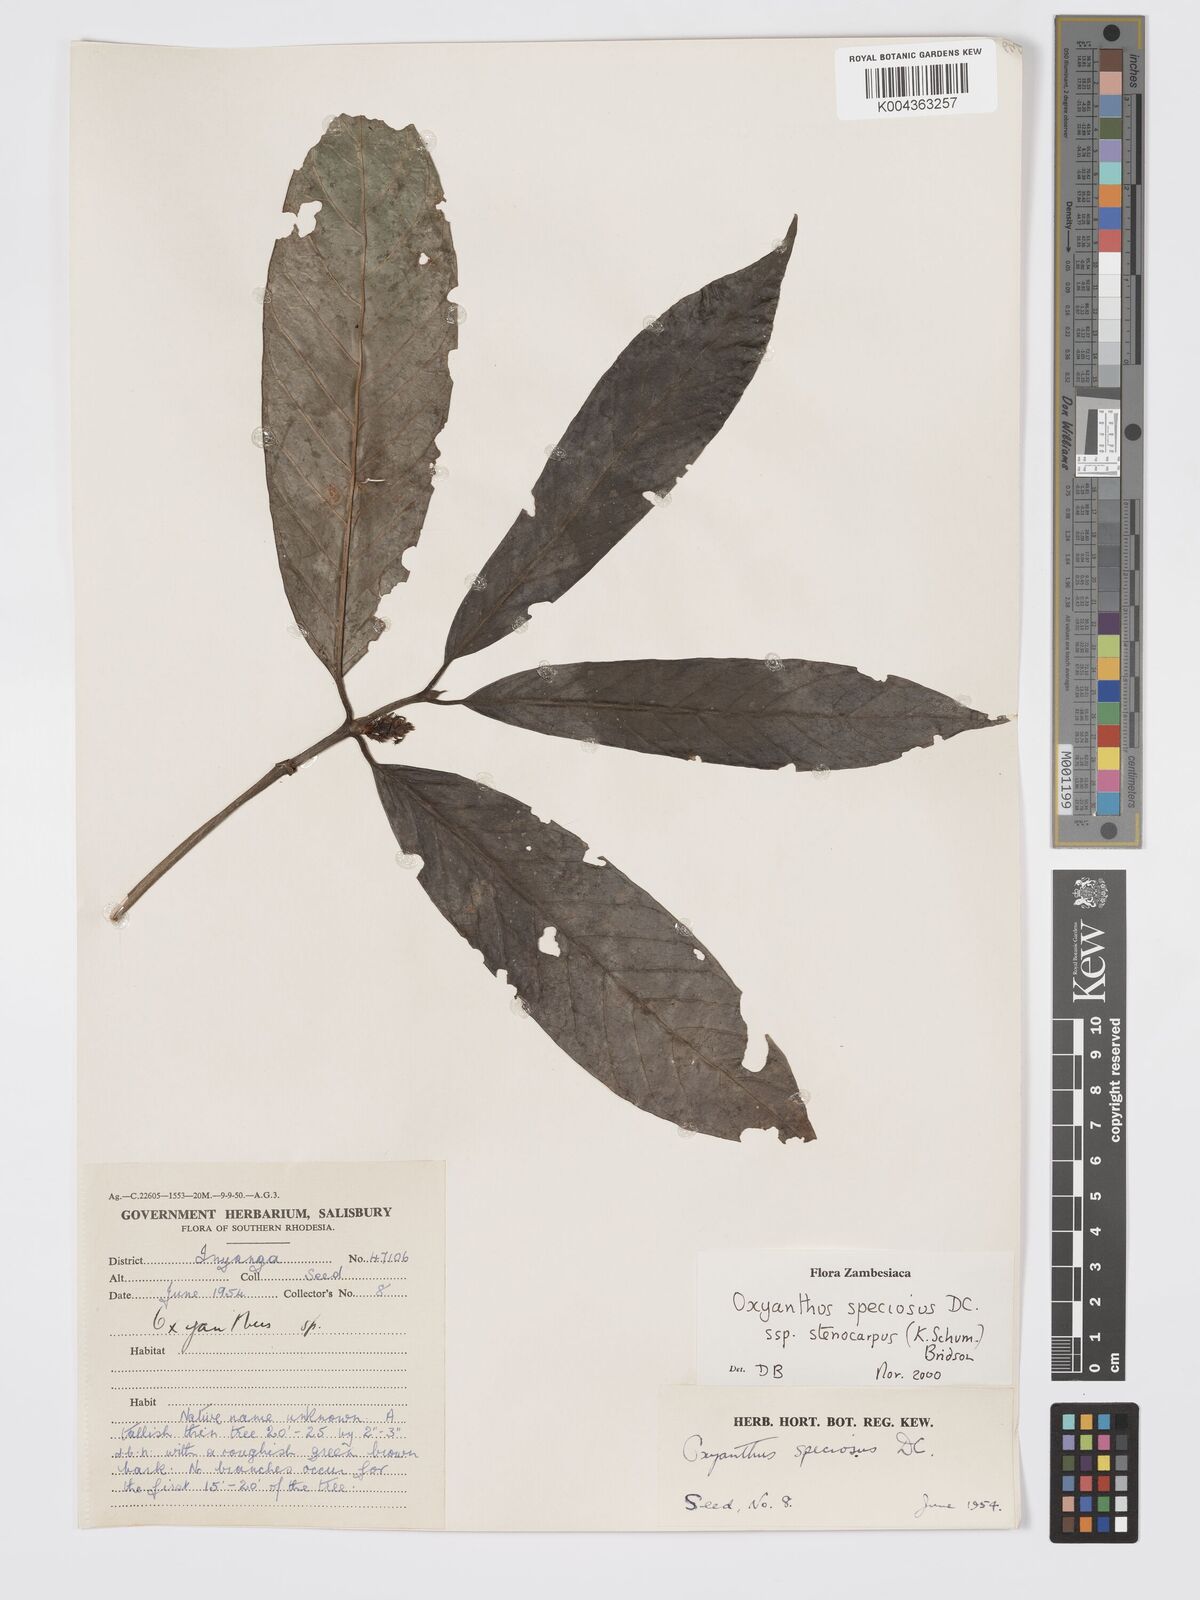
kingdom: Plantae
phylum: Tracheophyta
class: Magnoliopsida
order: Gentianales
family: Rubiaceae
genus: Oxyanthus
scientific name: Oxyanthus speciosus
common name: Whipstick loquat
